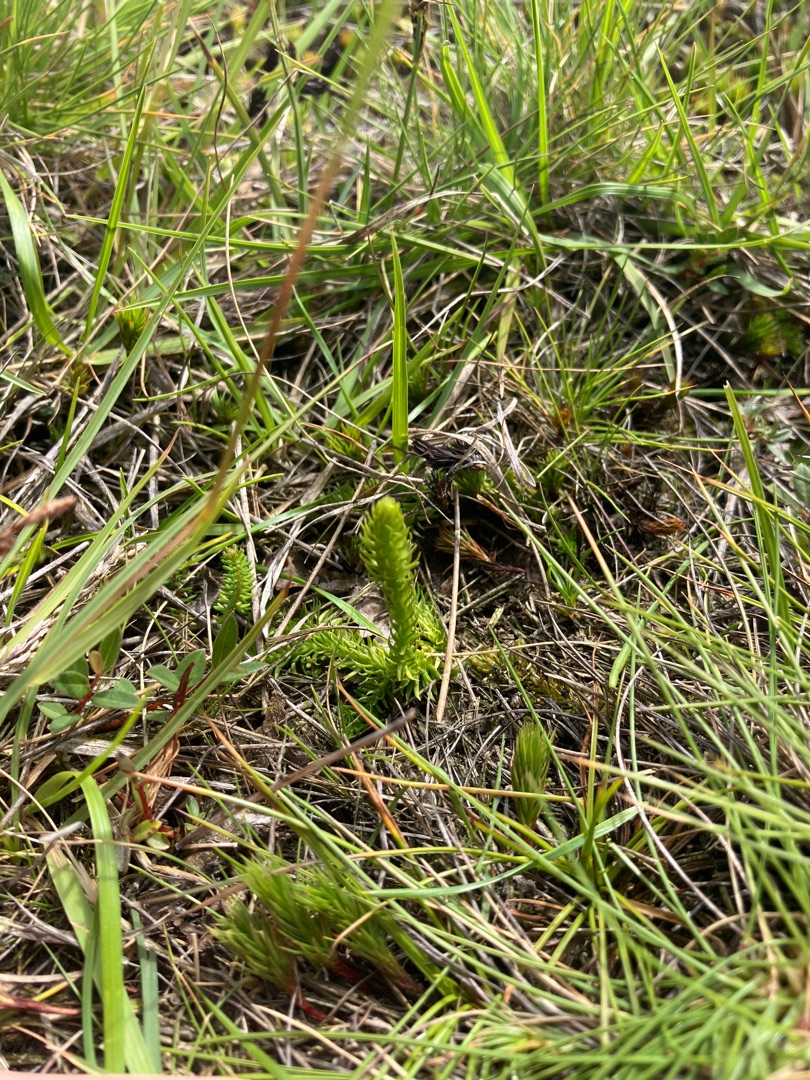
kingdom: Plantae
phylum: Tracheophyta
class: Lycopodiopsida
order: Lycopodiales
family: Lycopodiaceae
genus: Lycopodiella
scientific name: Lycopodiella inundata
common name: Liden ulvefod
